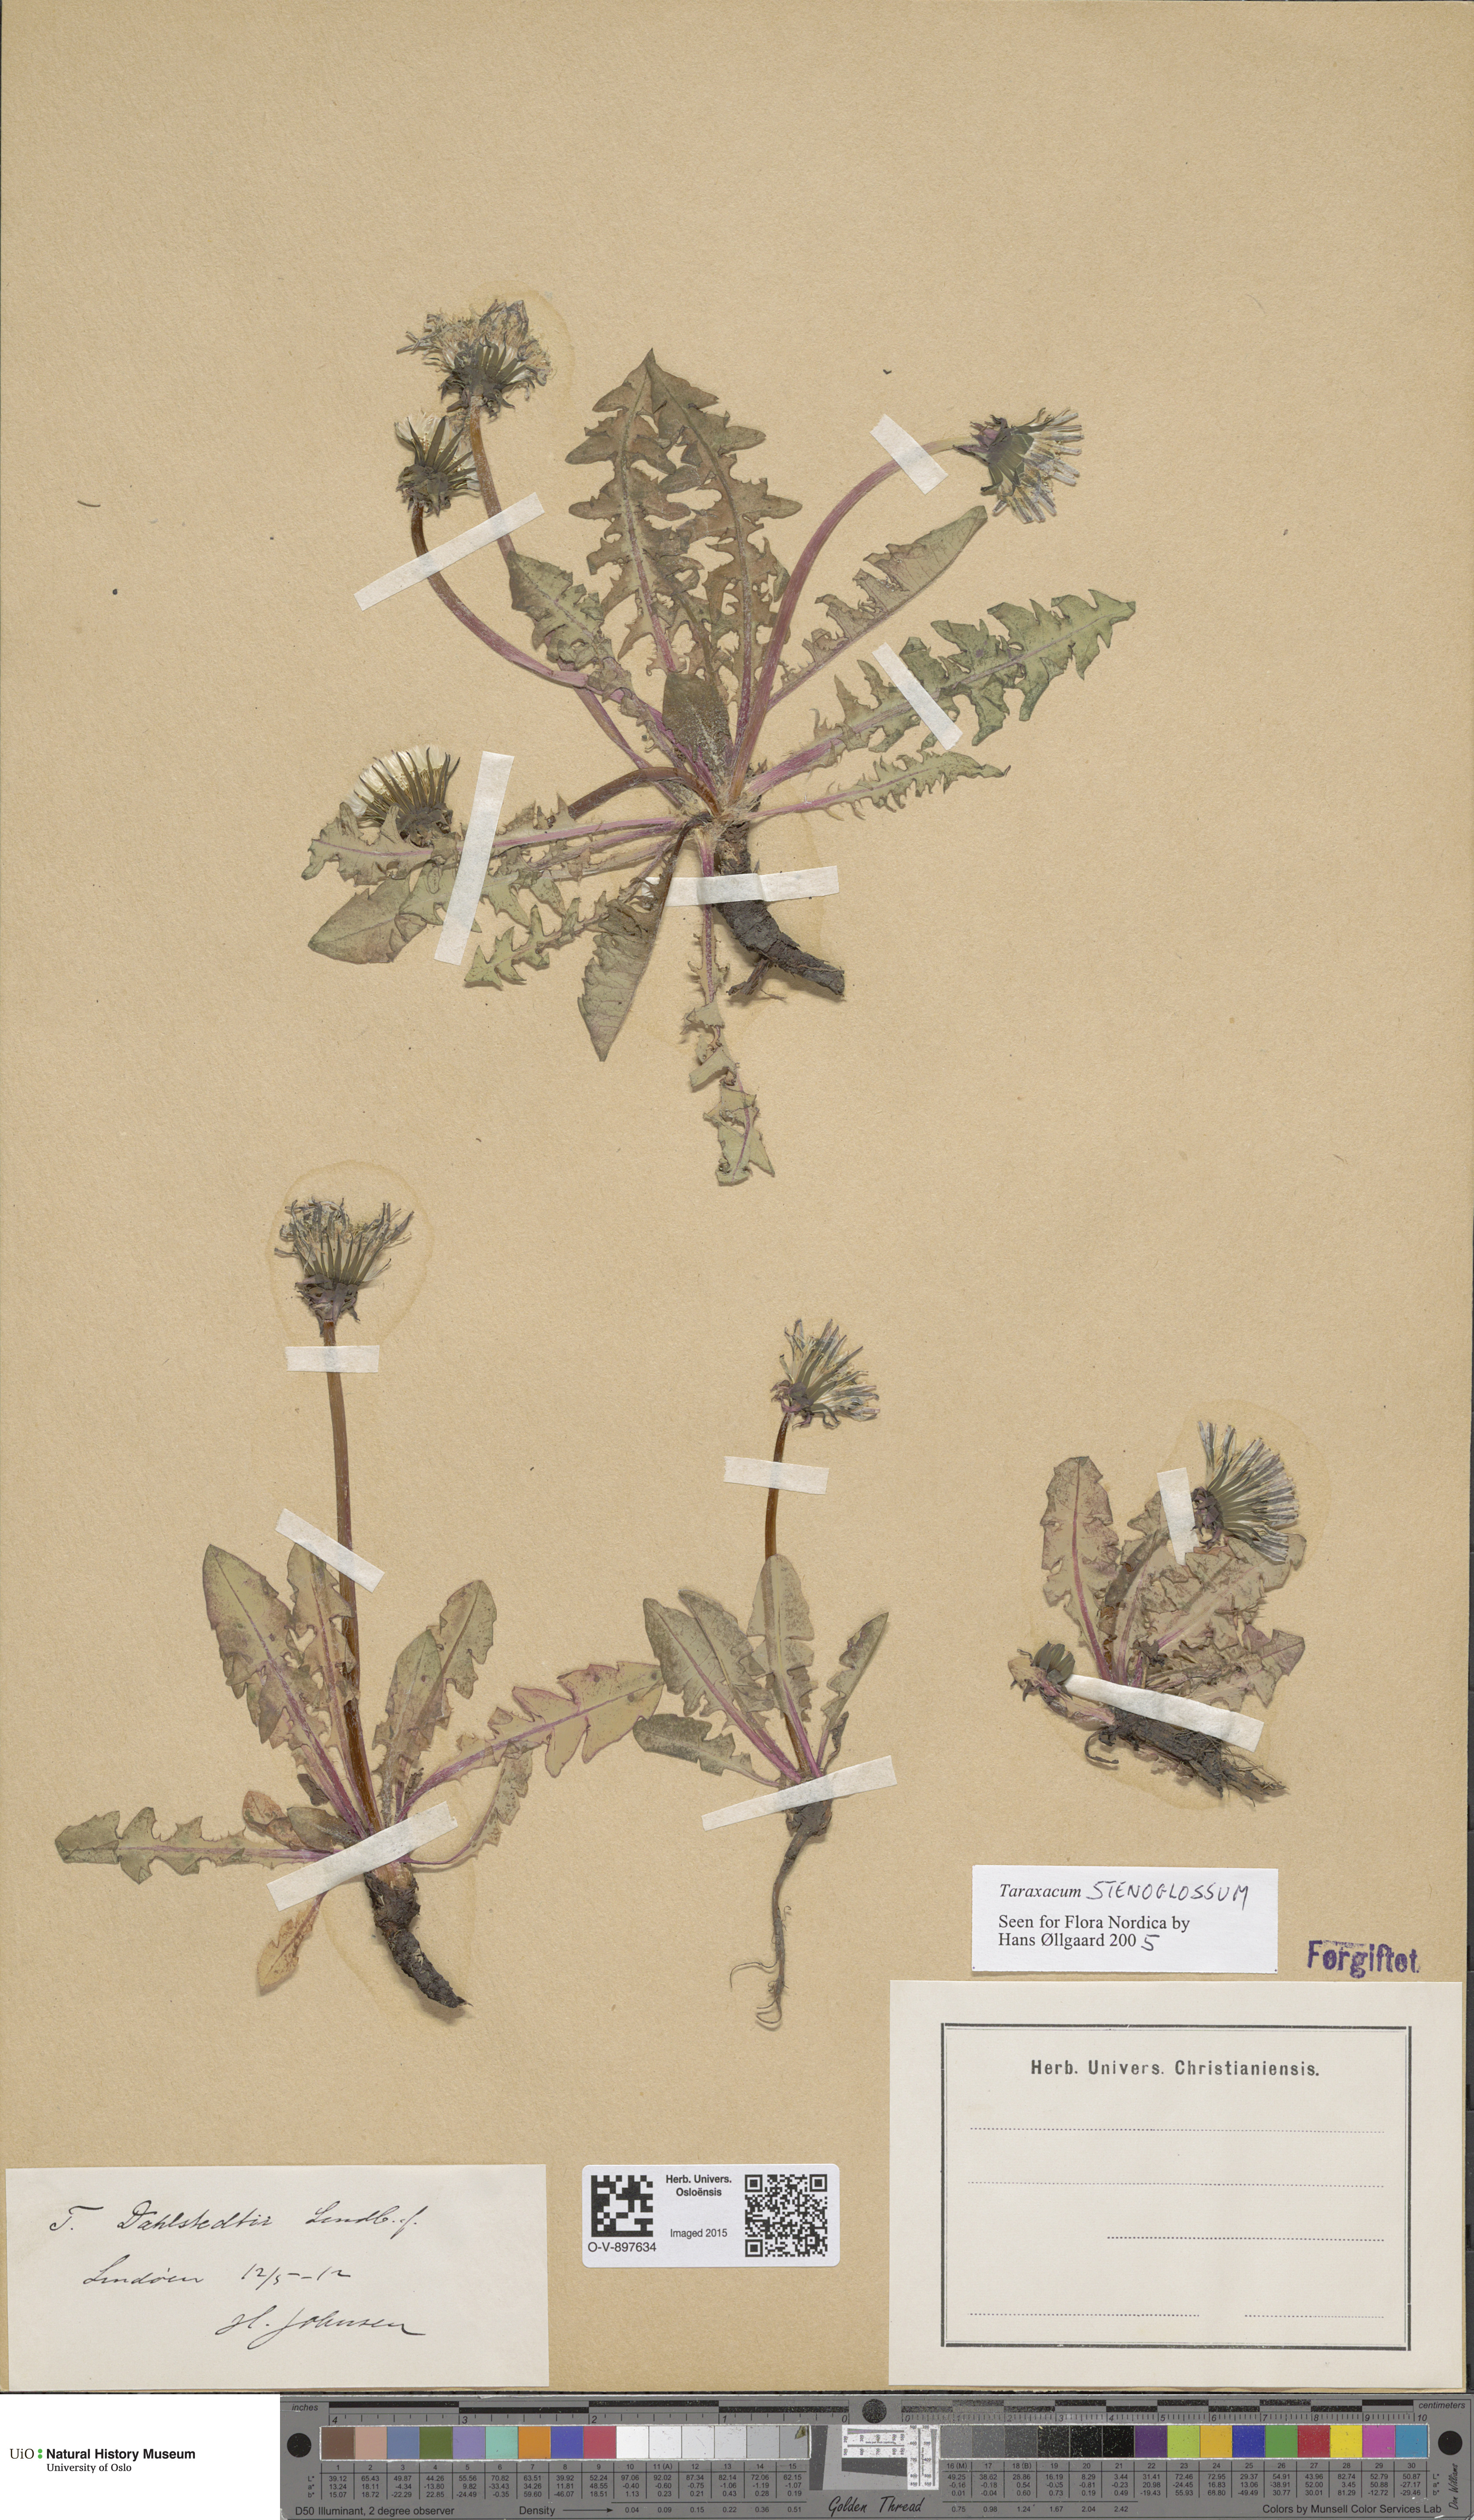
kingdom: Plantae
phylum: Tracheophyta
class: Magnoliopsida
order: Asterales
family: Asteraceae
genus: Taraxacum
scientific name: Taraxacum stenoglossum
